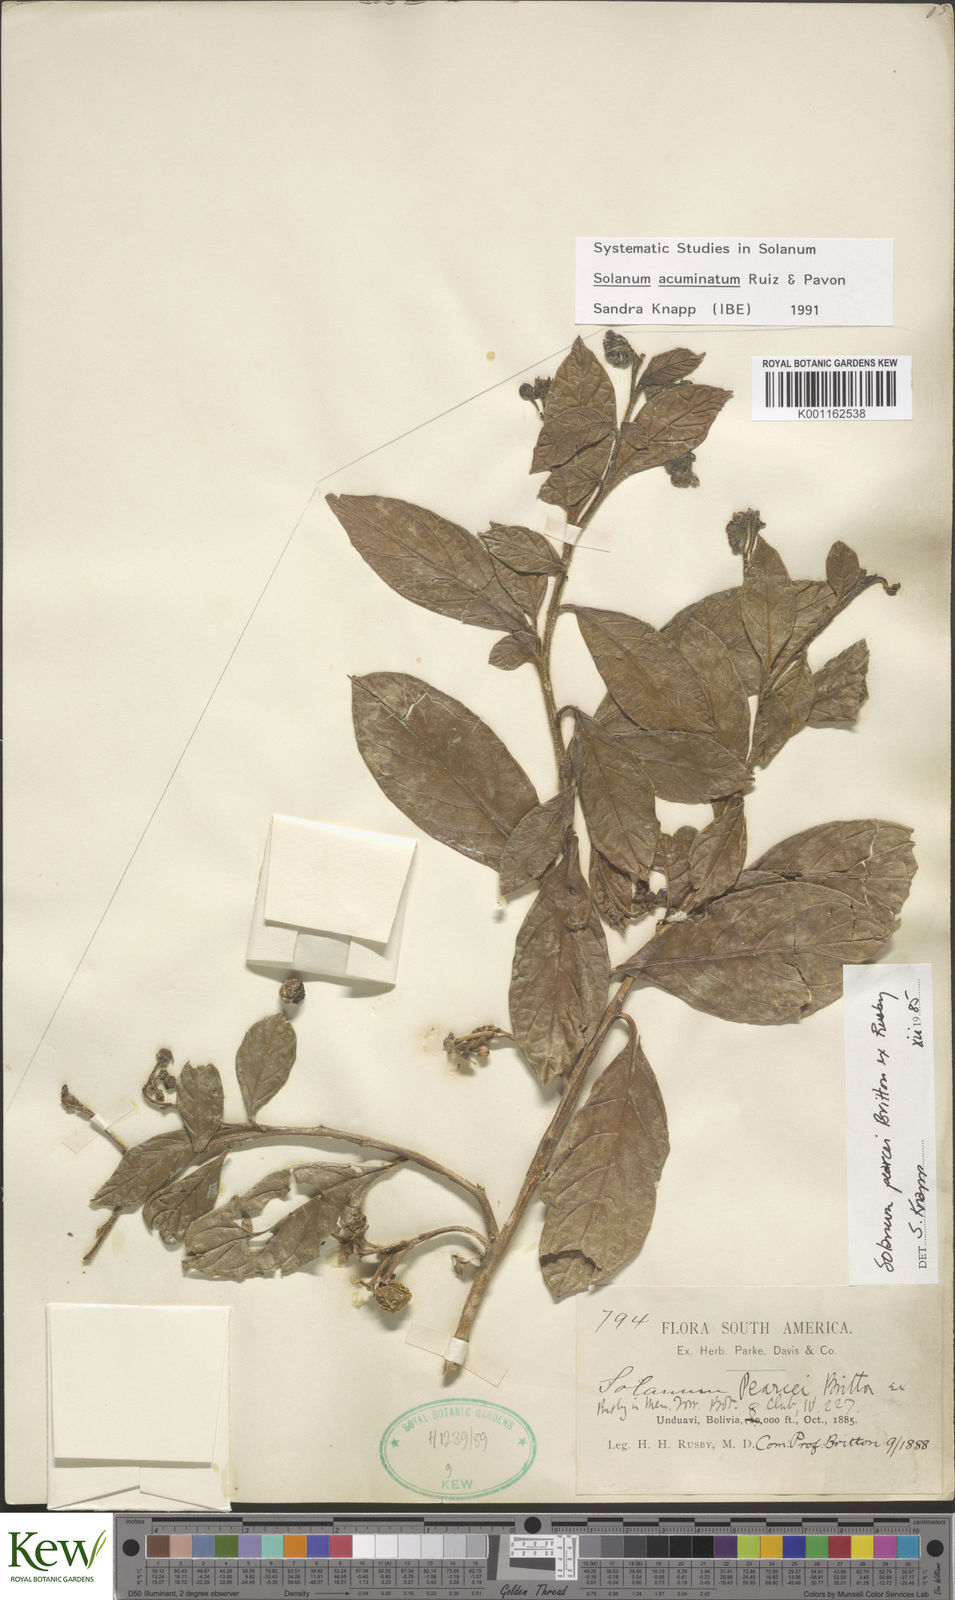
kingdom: Plantae
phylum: Tracheophyta
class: Magnoliopsida
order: Solanales
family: Solanaceae
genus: Solanum
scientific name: Solanum acuminatum
